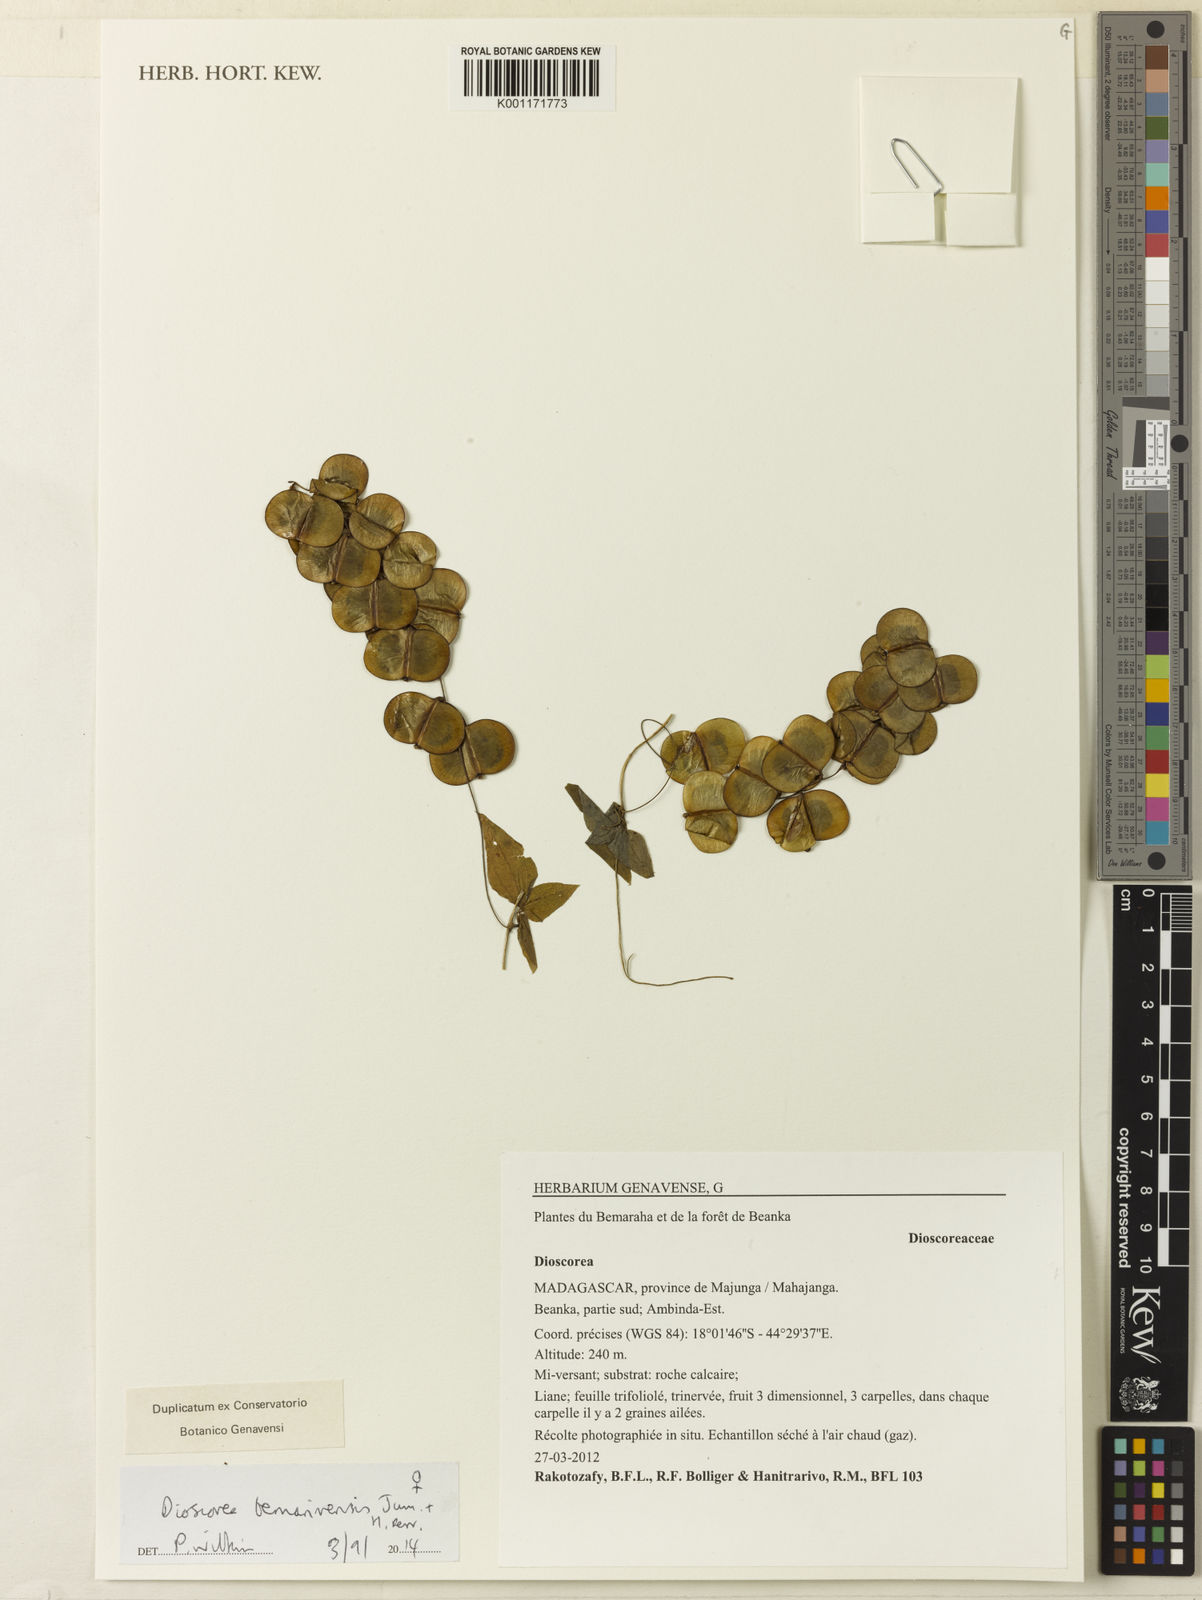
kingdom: Plantae
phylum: Tracheophyta
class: Liliopsida
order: Dioscoreales
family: Dioscoreaceae
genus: Dioscorea
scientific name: Dioscorea bemarivensis
